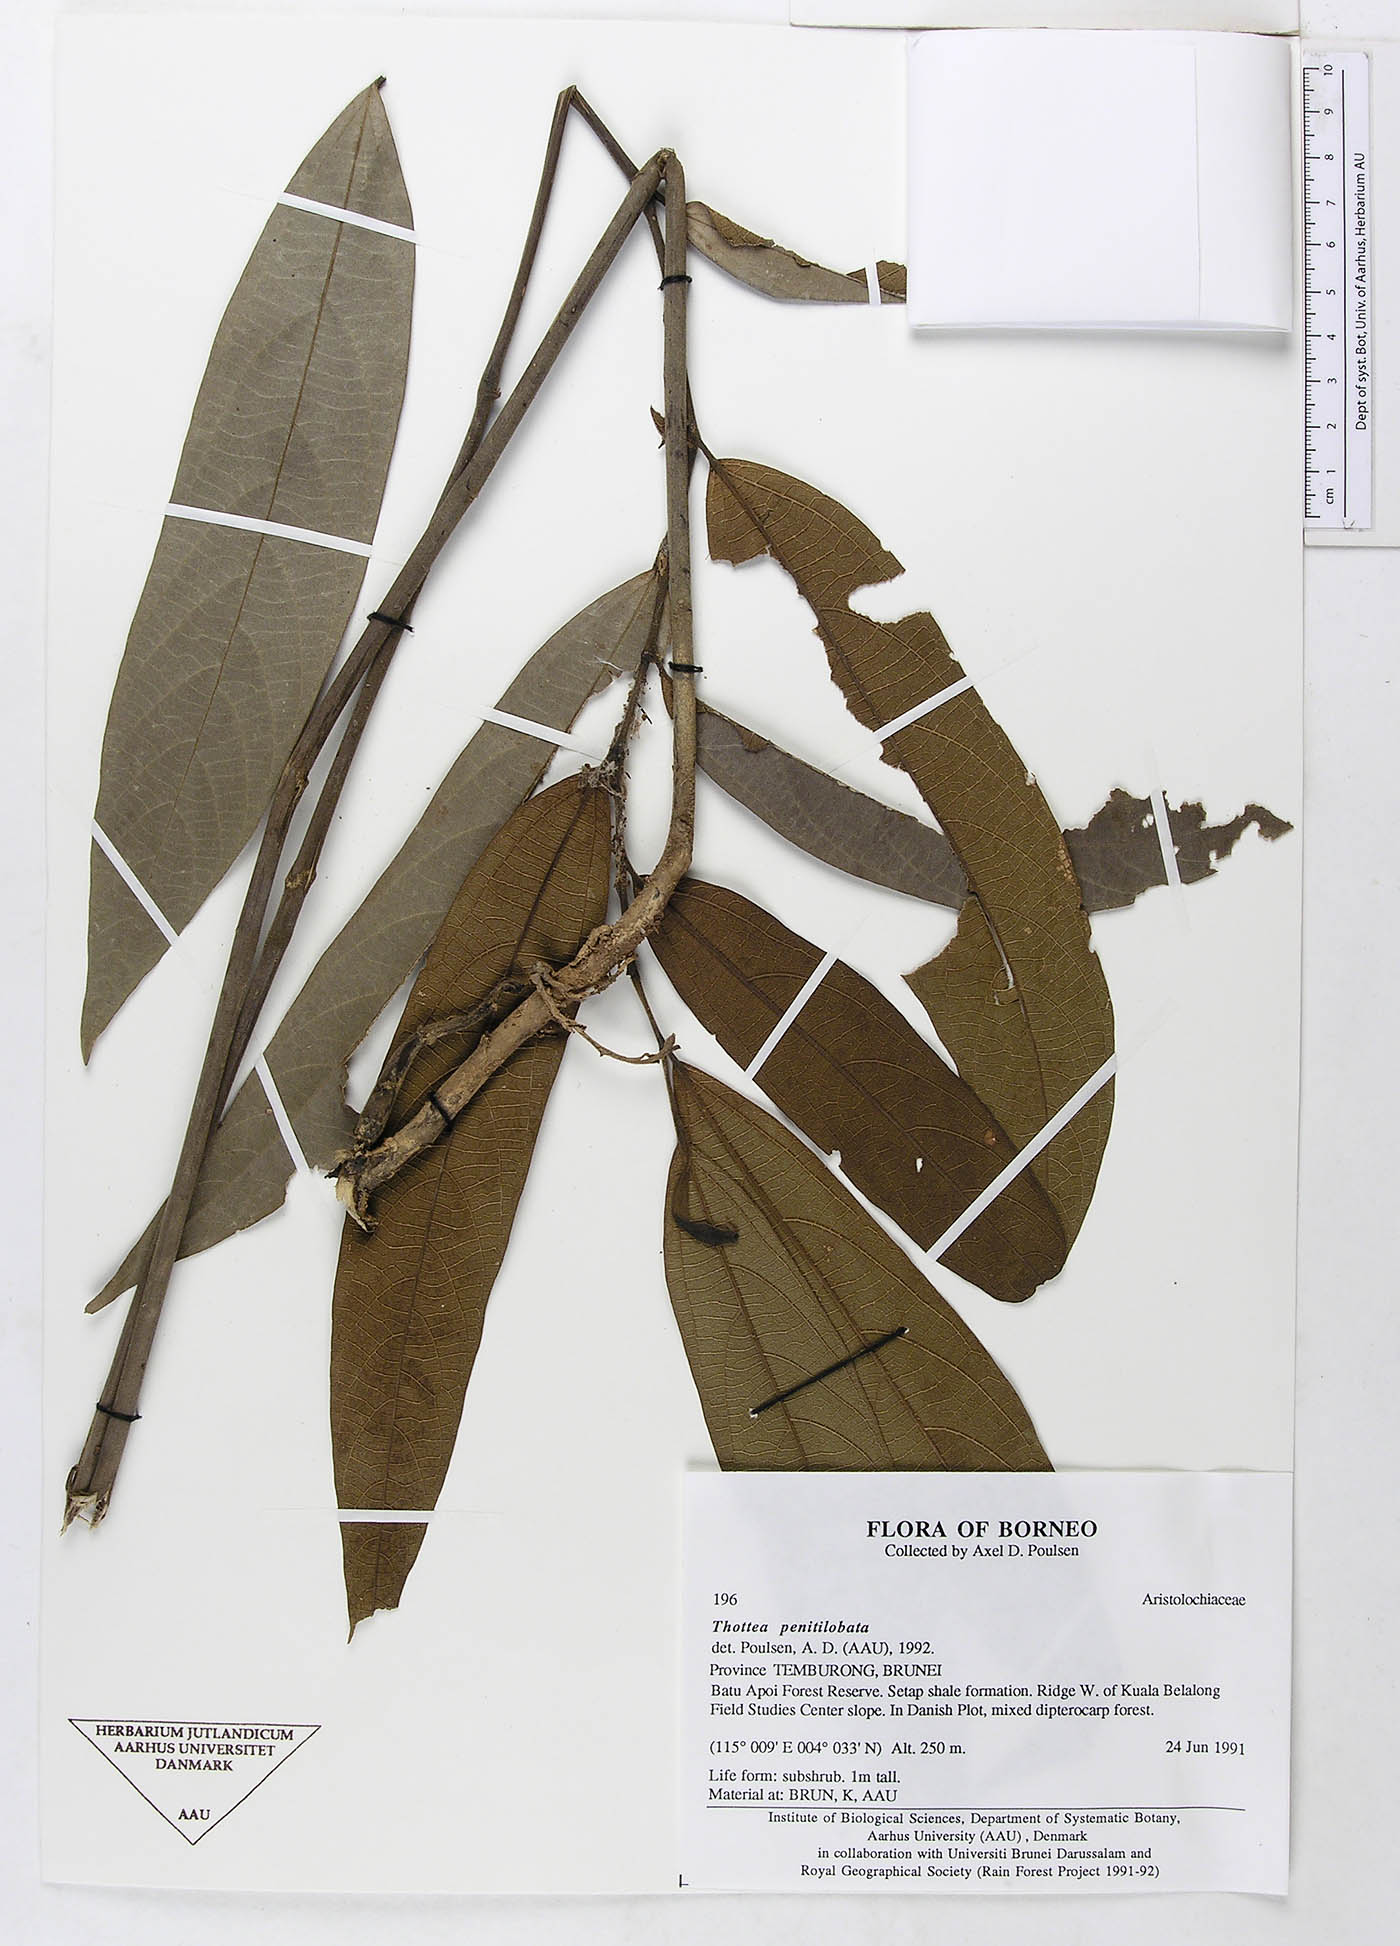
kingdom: Plantae
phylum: Tracheophyta
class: Magnoliopsida
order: Piperales
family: Aristolochiaceae
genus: Thottea
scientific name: Thottea penitilobata
